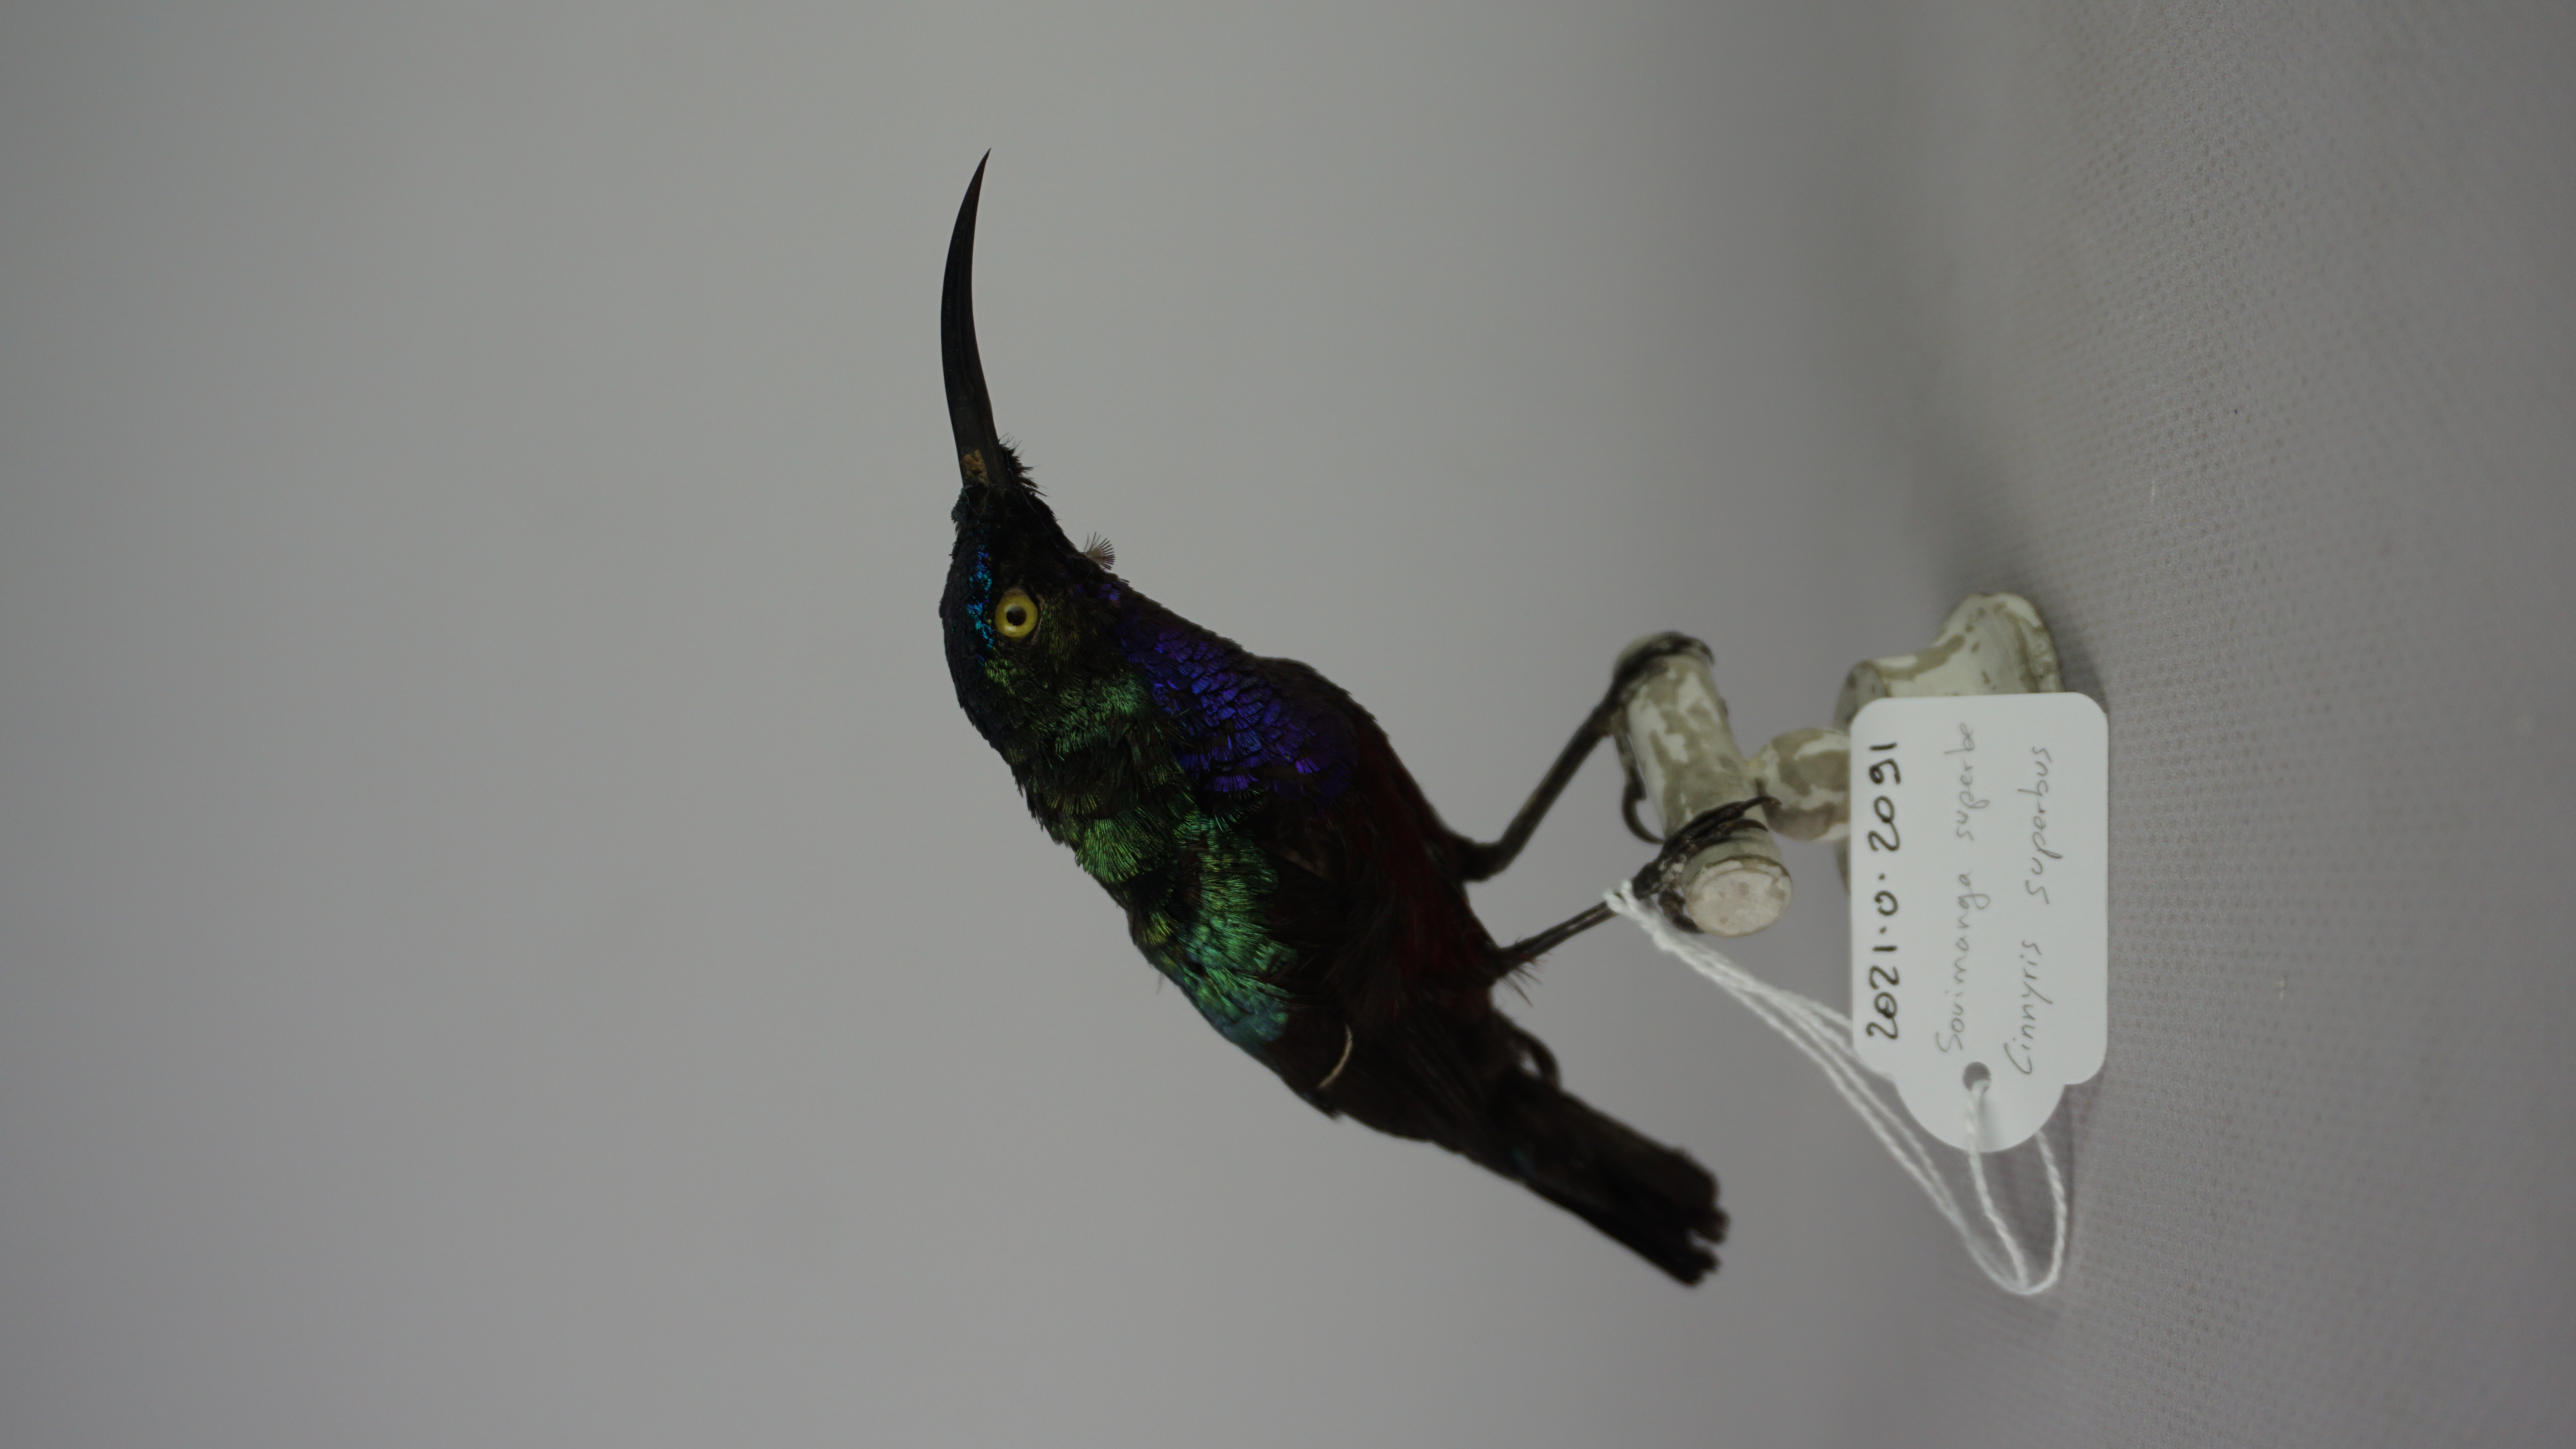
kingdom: Animalia
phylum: Chordata
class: Aves
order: Passeriformes
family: Nectariniidae
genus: Cinnyris
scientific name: Cinnyris superbus
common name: Superb sunbird
